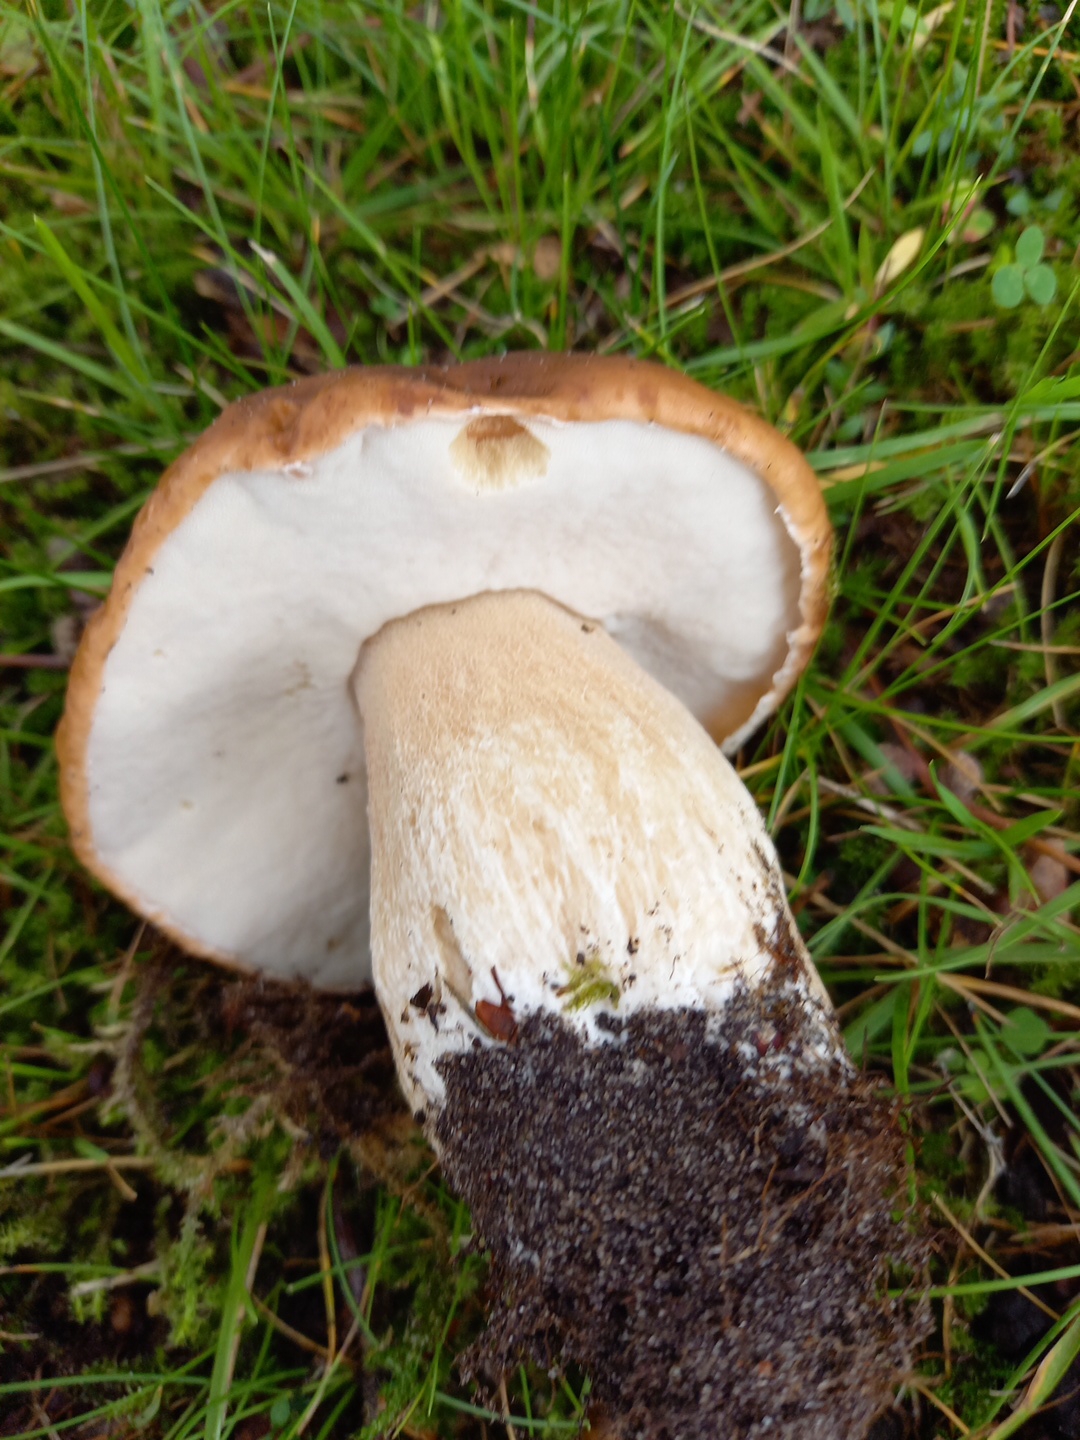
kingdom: Fungi
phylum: Basidiomycota
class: Agaricomycetes
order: Boletales
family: Boletaceae
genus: Boletus
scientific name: Boletus edulis
